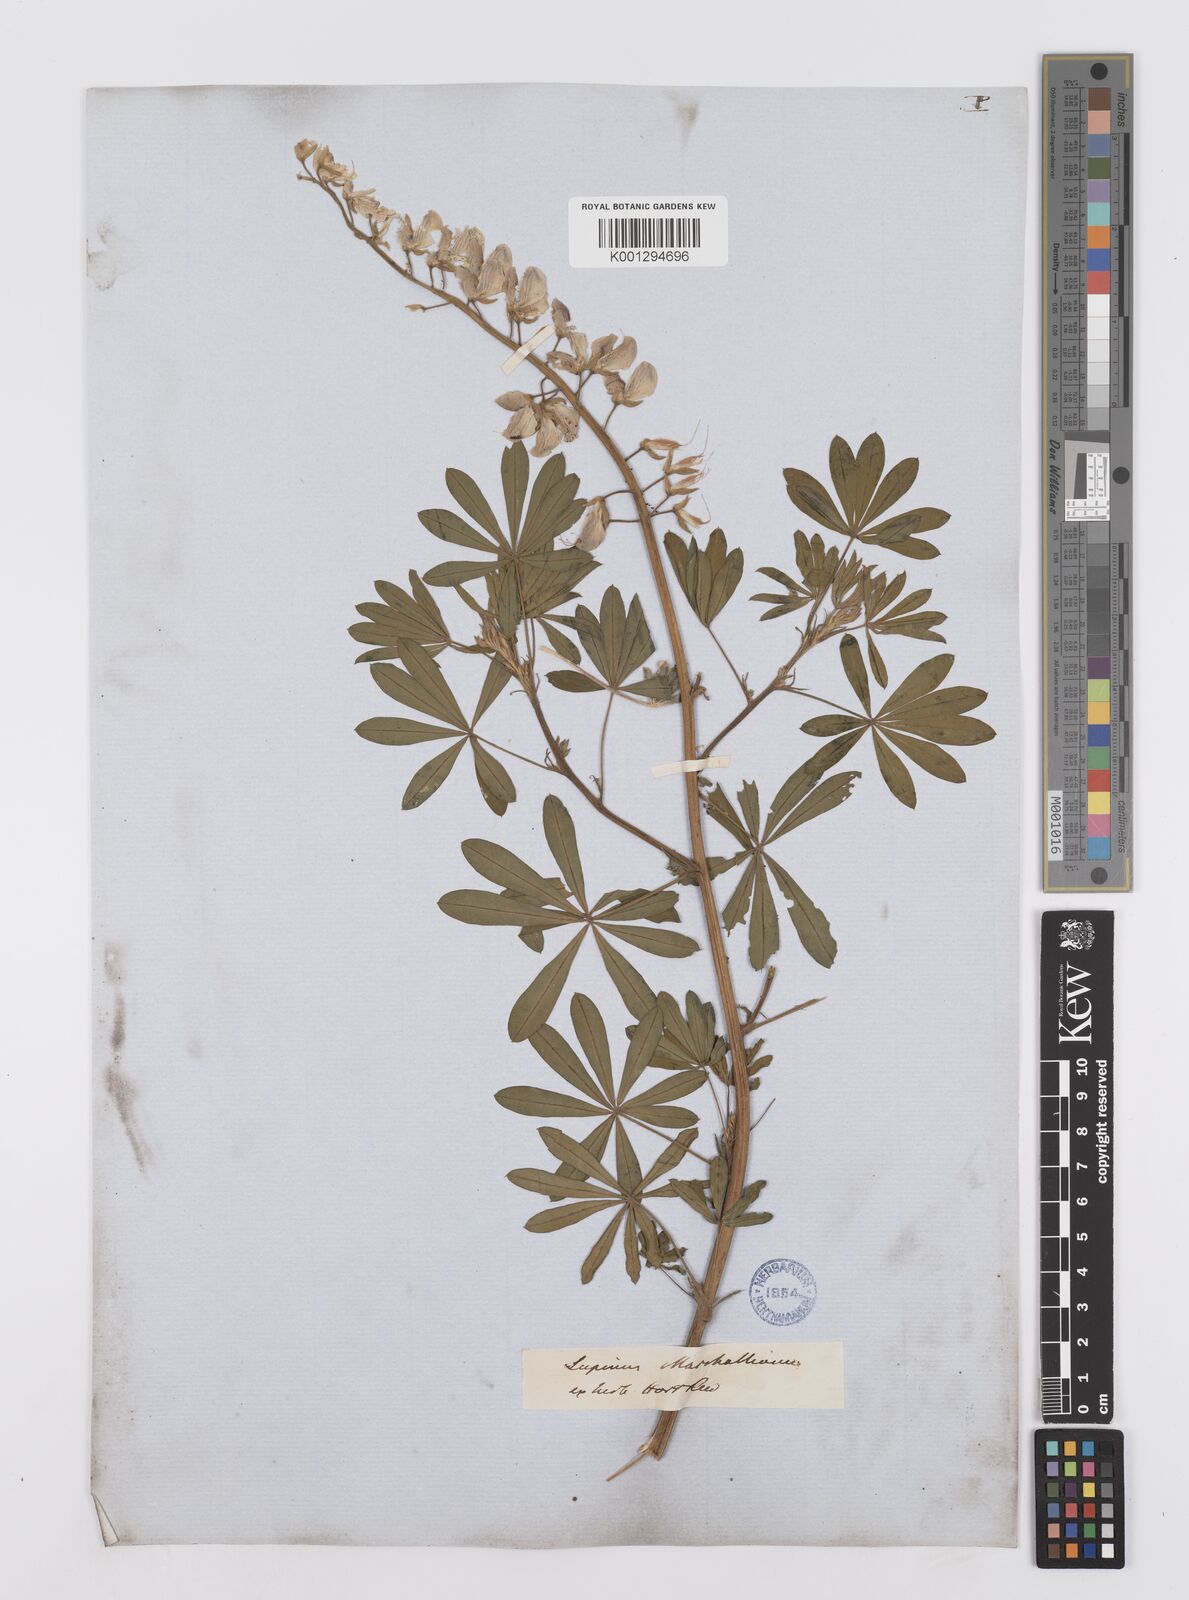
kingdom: Plantae
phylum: Tracheophyta
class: Magnoliopsida
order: Fabales
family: Fabaceae
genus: Lupinus
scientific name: Lupinus marschallianus
